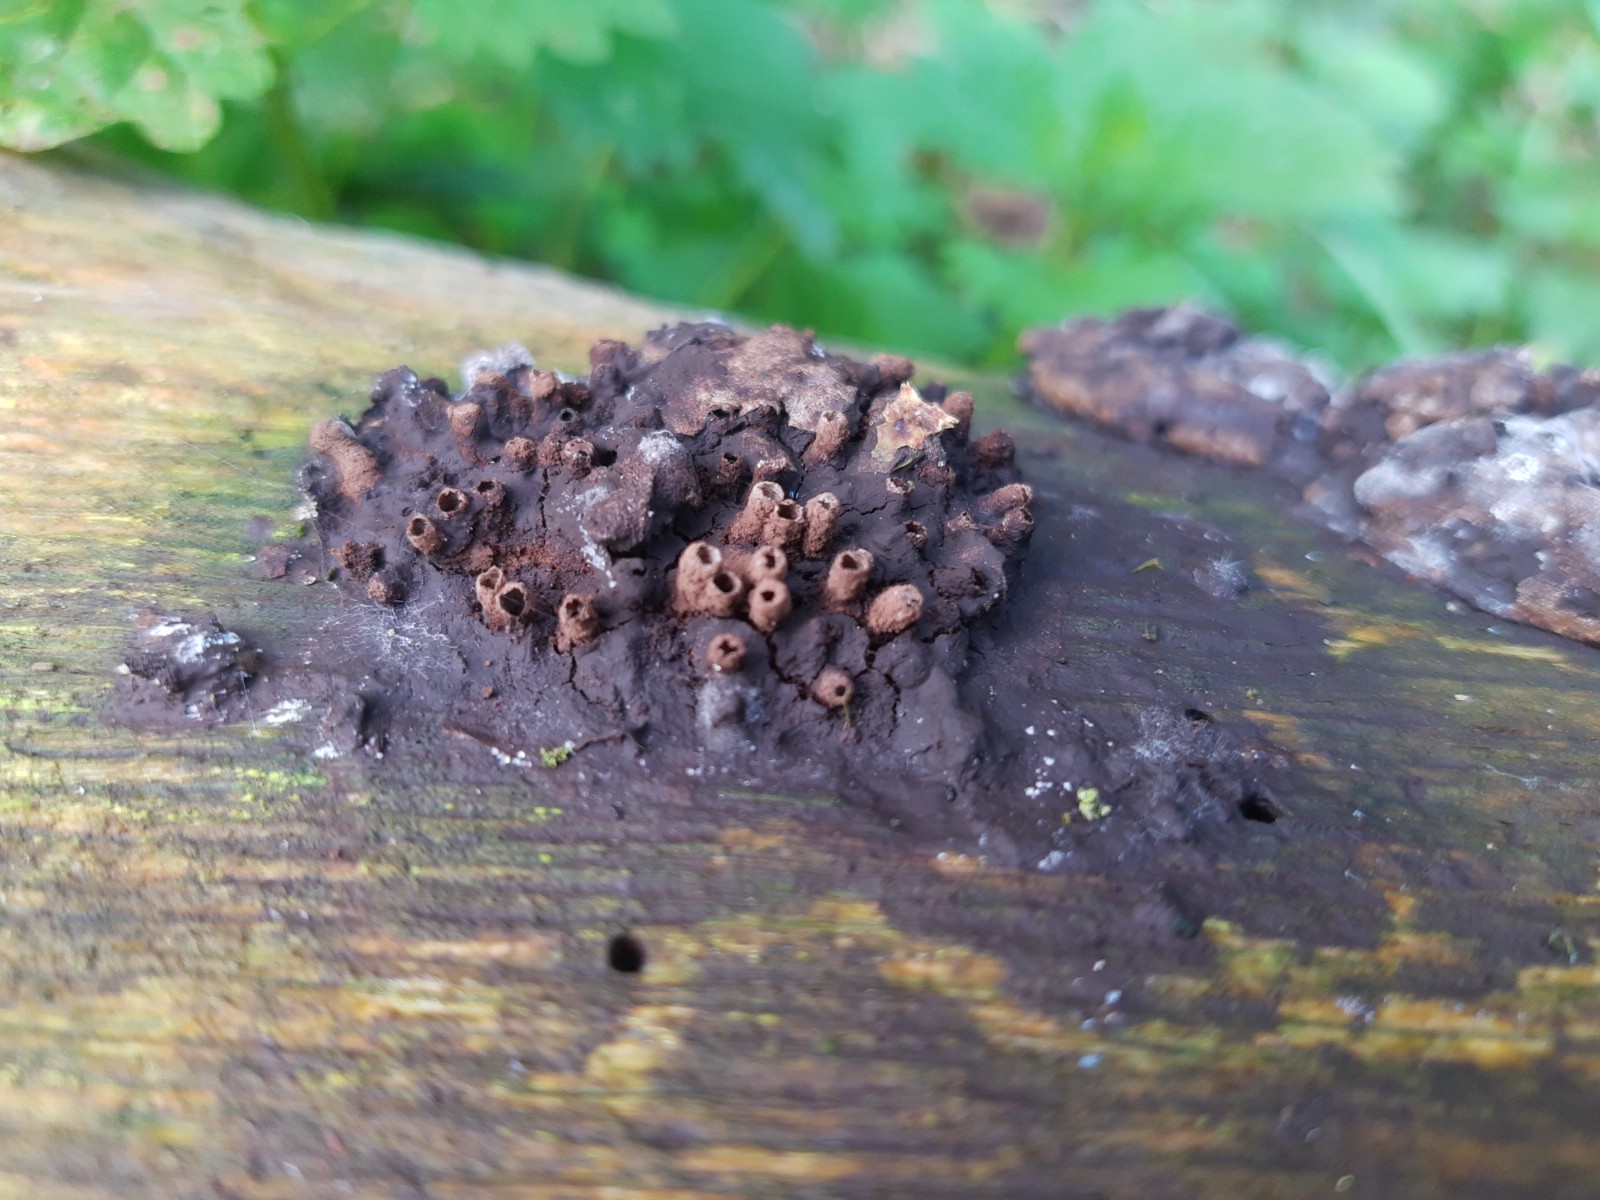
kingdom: Protozoa
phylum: Mycetozoa
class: Myxomycetes
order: Cribrariales
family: Tubiferaceae
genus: Reticularia
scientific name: Reticularia lycoperdon
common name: skinnende støvpude
